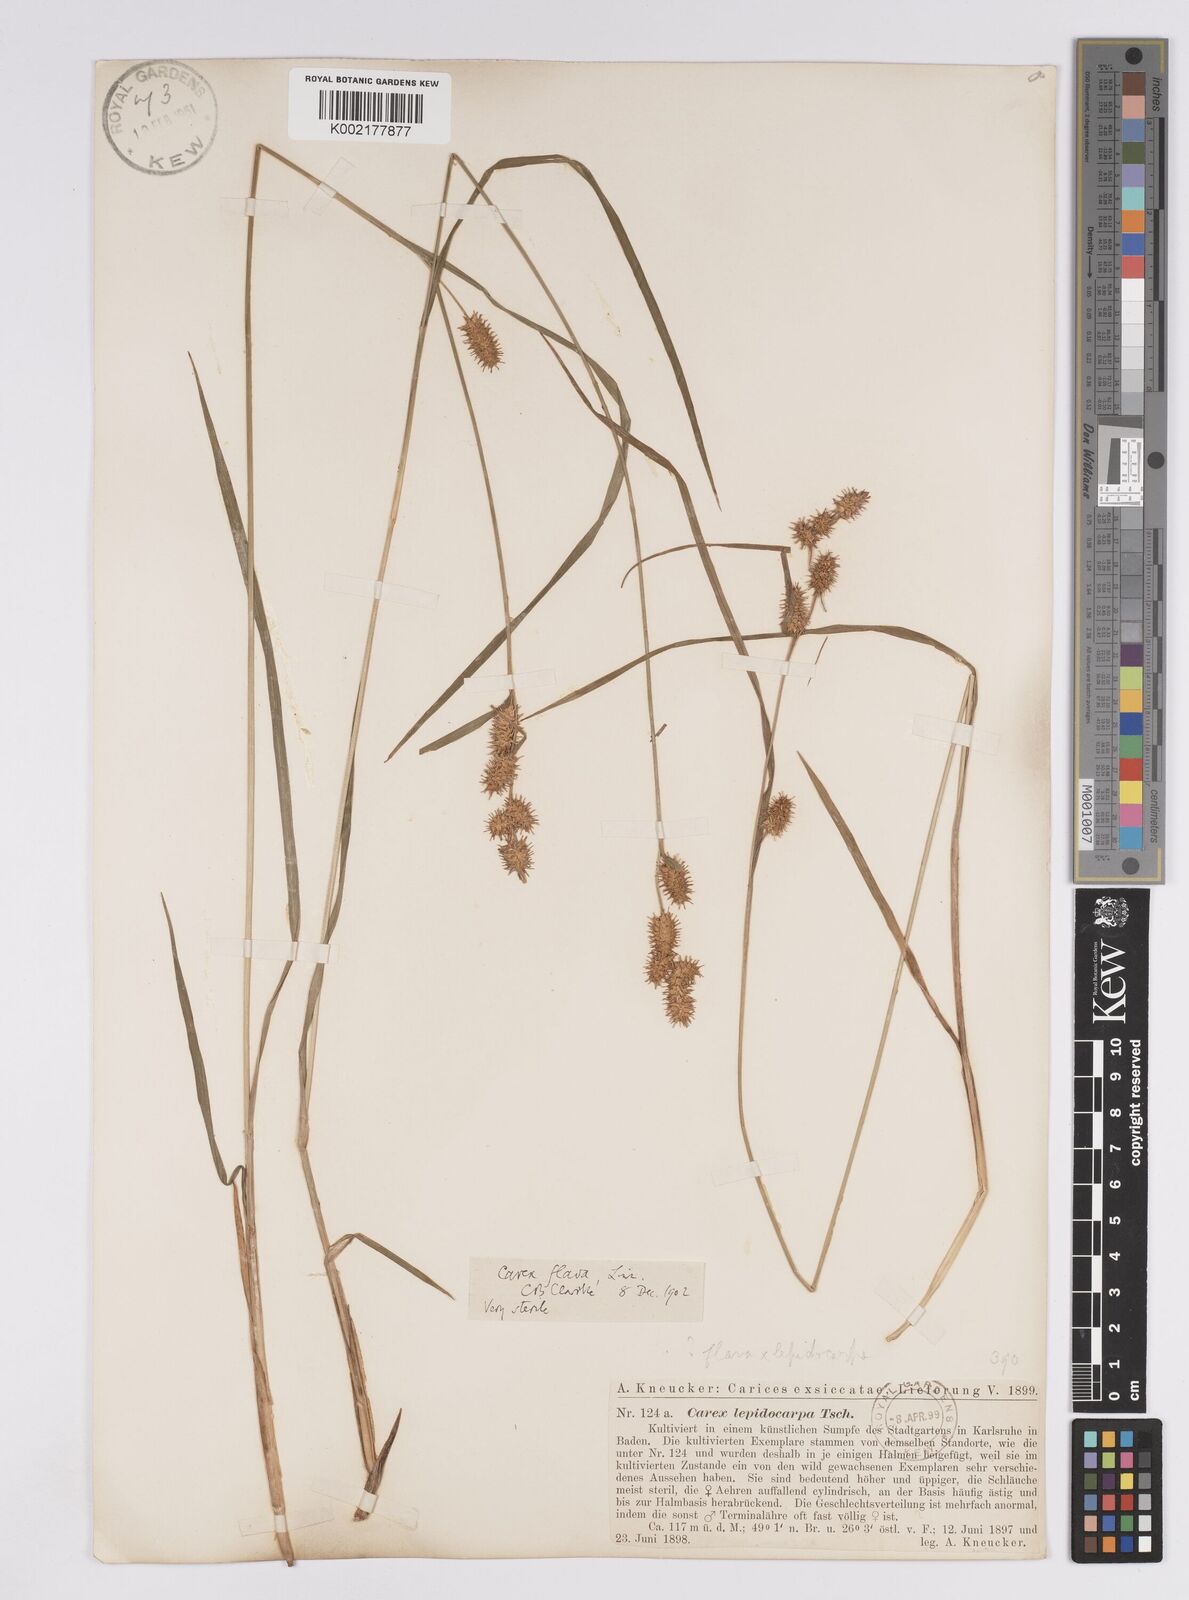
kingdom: Plantae
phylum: Tracheophyta
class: Liliopsida
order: Poales
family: Cyperaceae
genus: Carex
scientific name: Carex flava
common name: Large yellow-sedge
